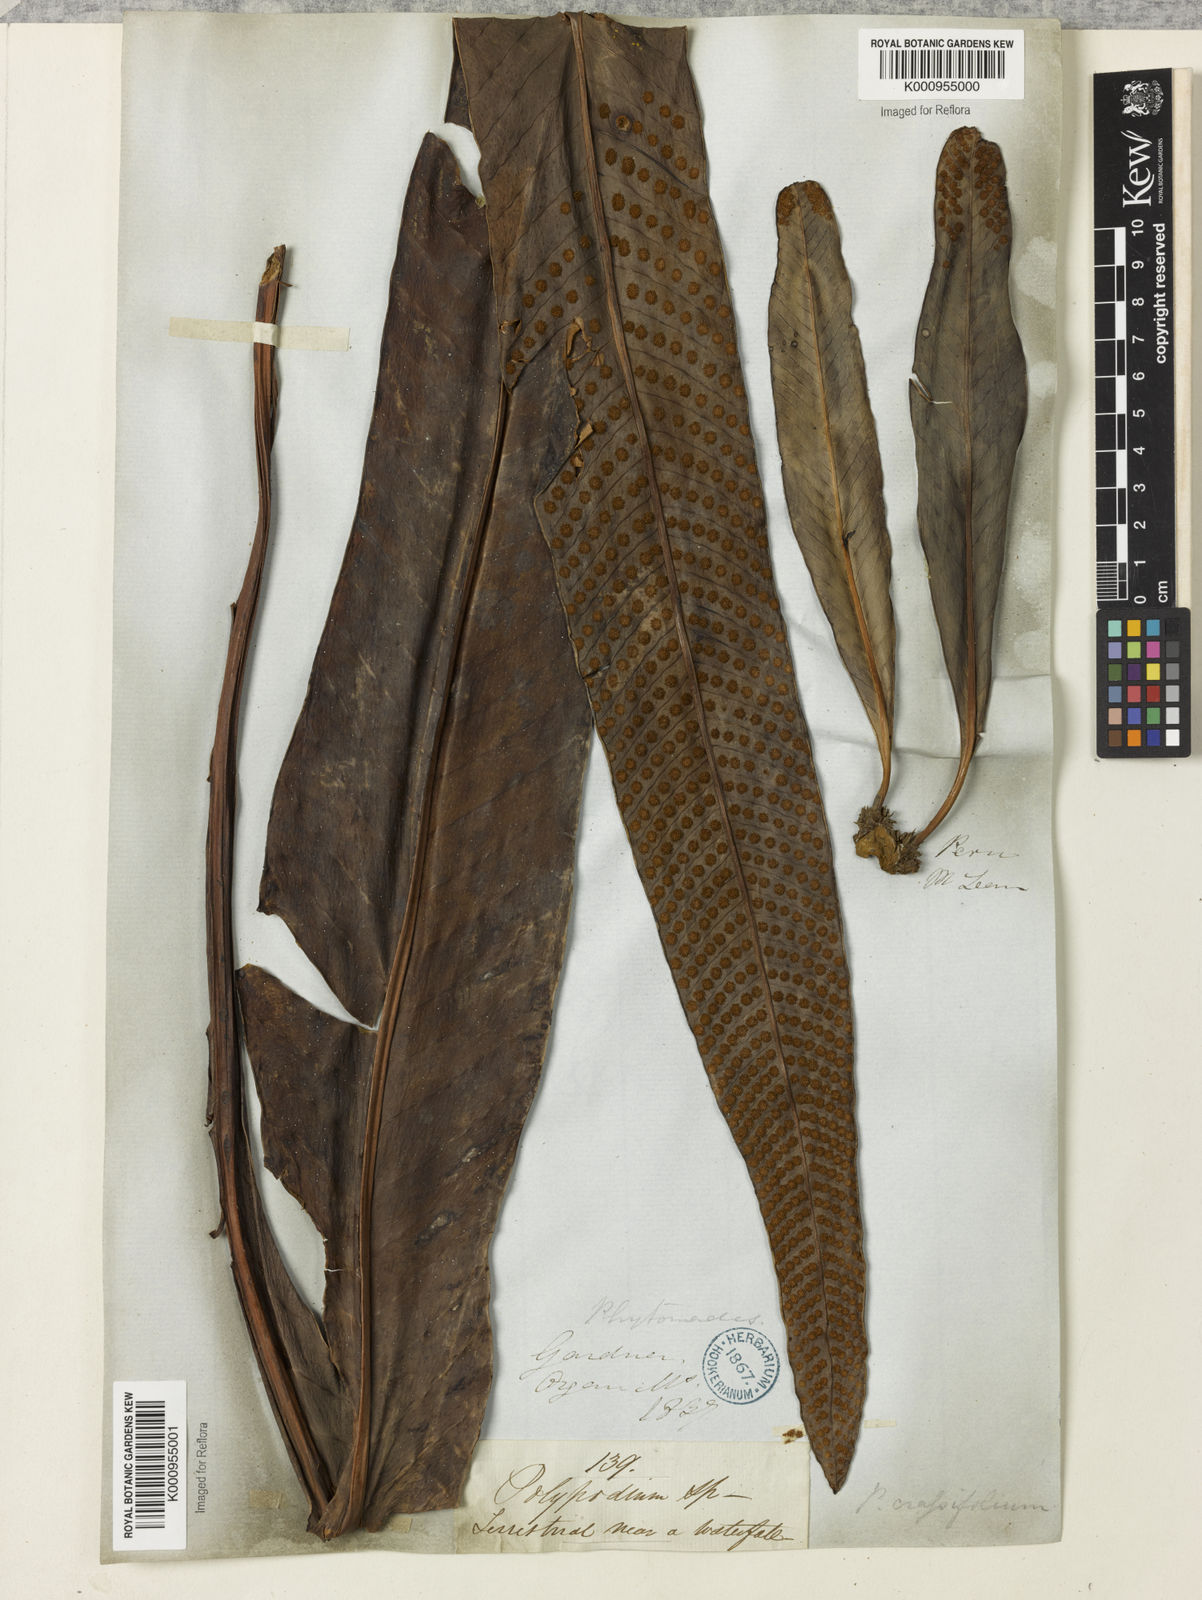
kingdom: Plantae
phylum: Tracheophyta
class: Polypodiopsida
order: Polypodiales
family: Polypodiaceae
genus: Niphidium
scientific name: Niphidium crassifolium
